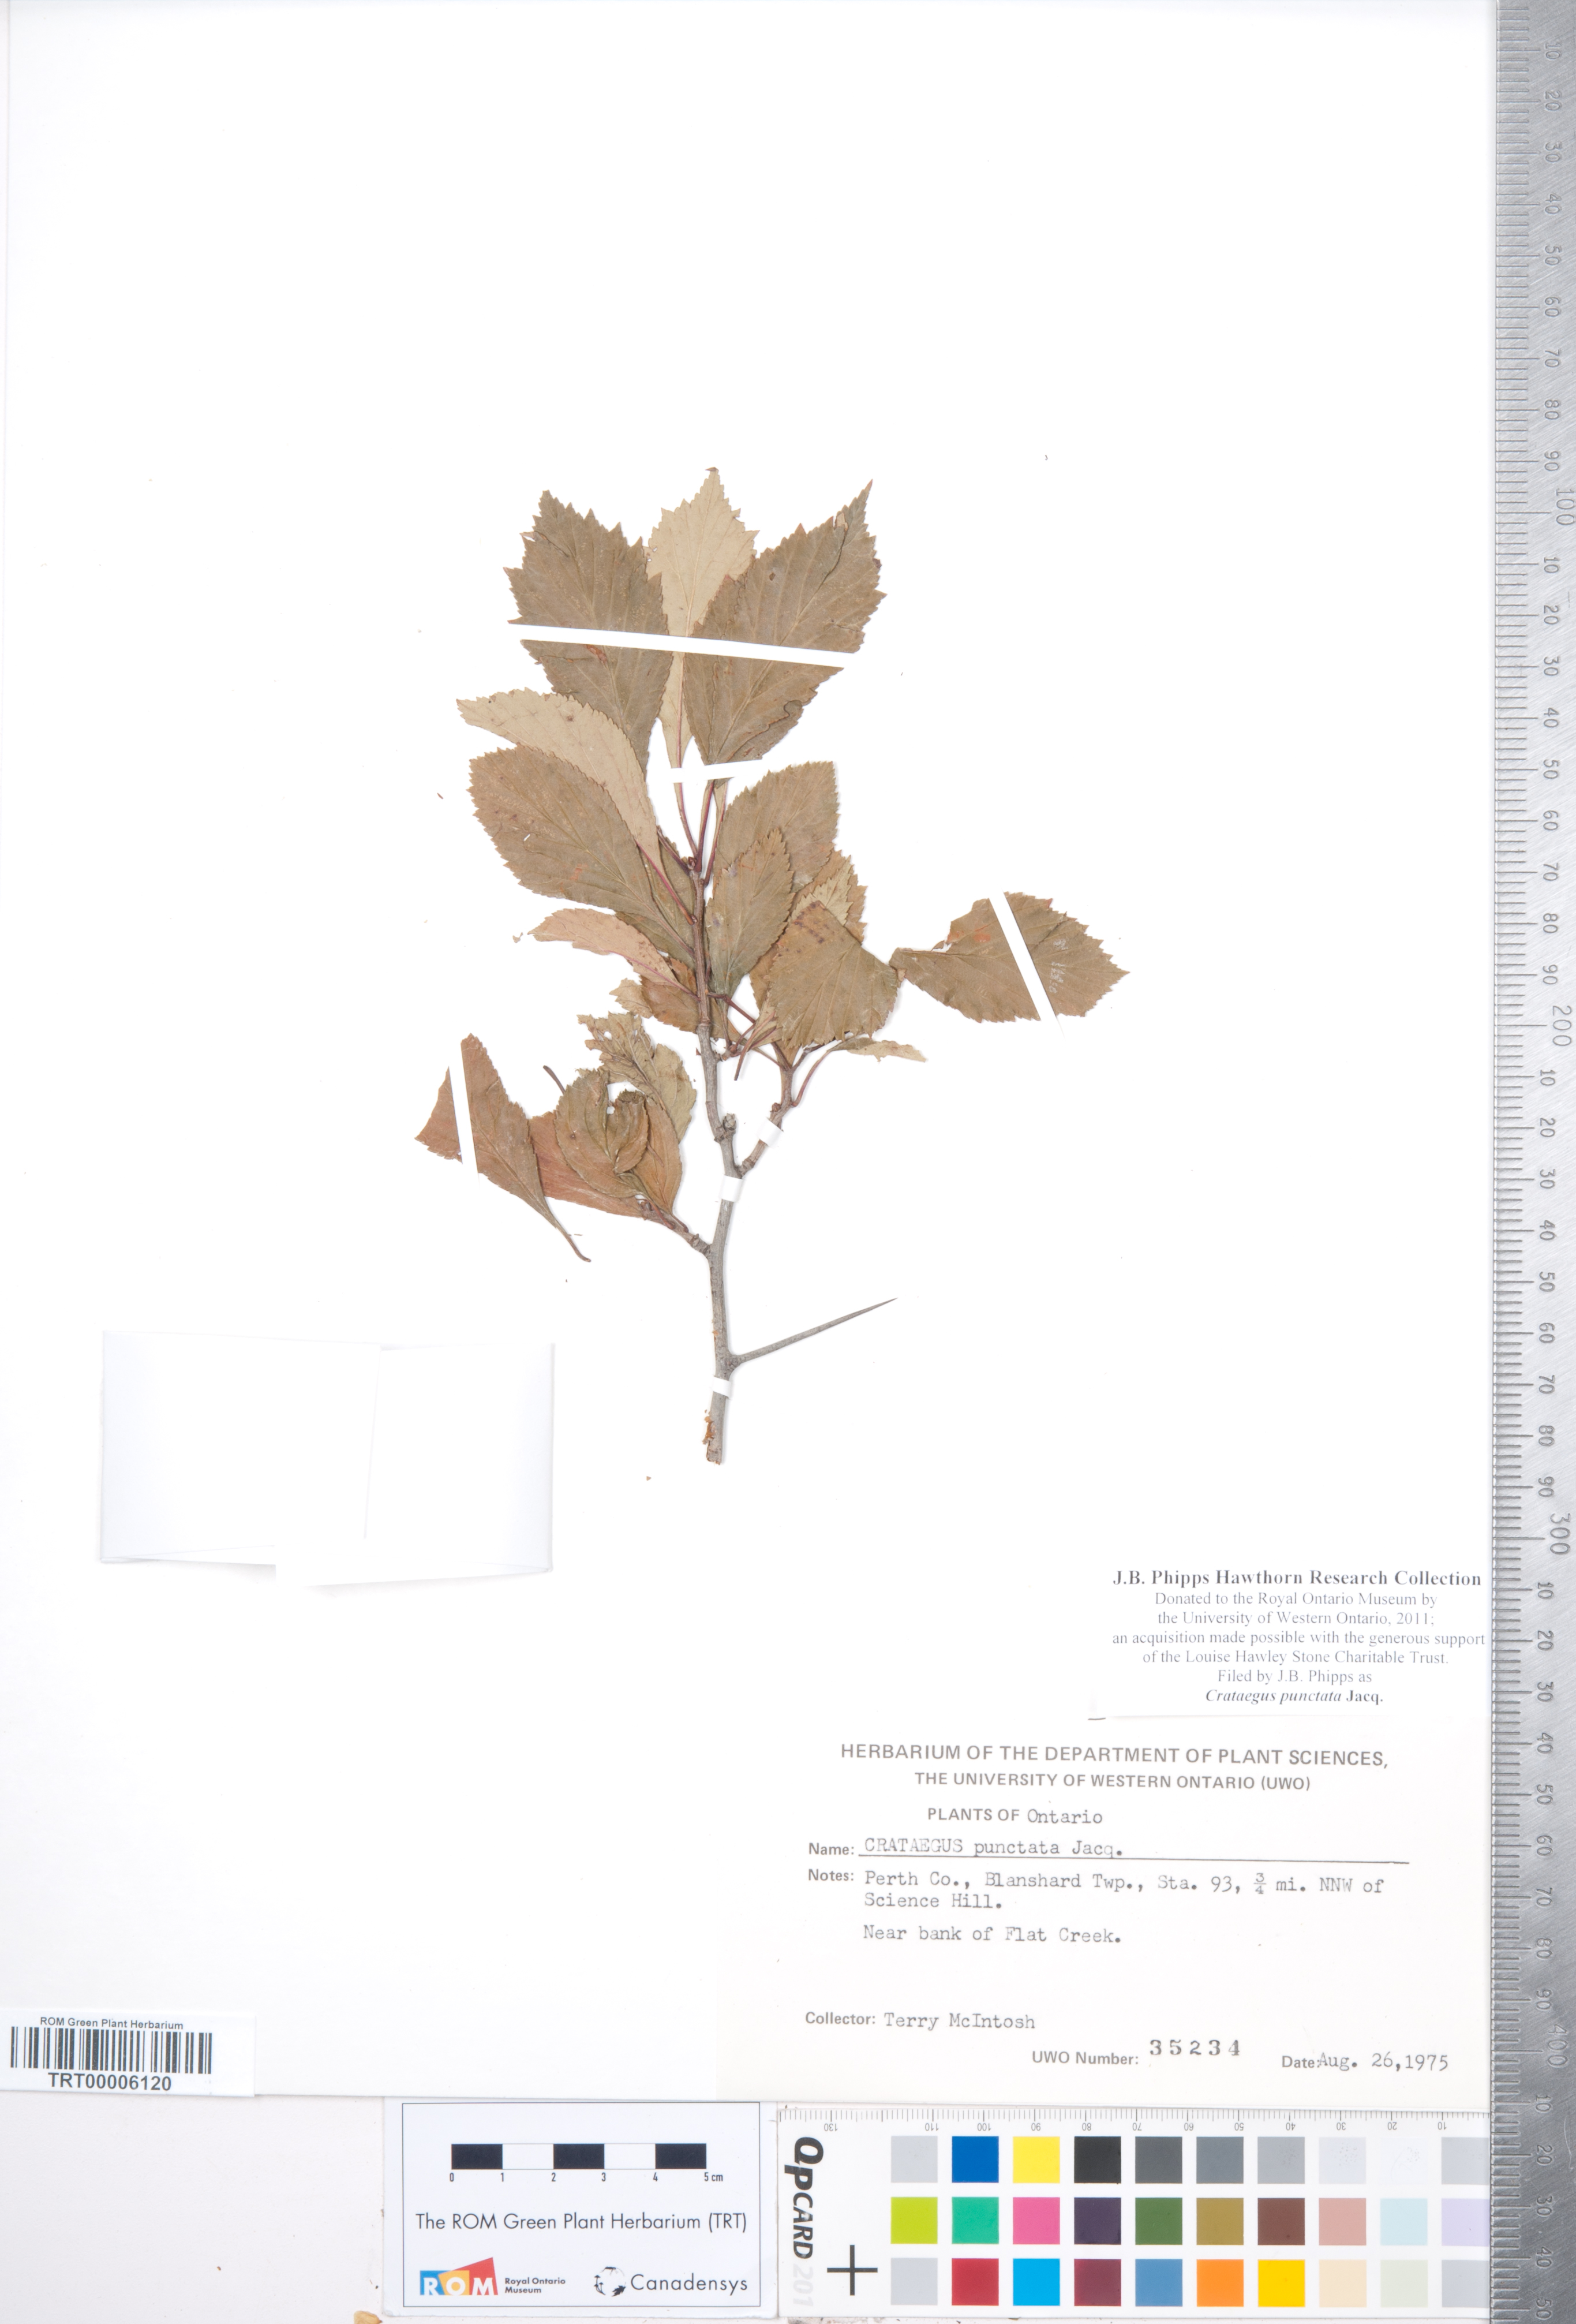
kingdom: Plantae
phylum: Tracheophyta
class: Magnoliopsida
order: Rosales
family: Rosaceae
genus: Crataegus
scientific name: Crataegus punctata
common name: Dotted hawthorn
